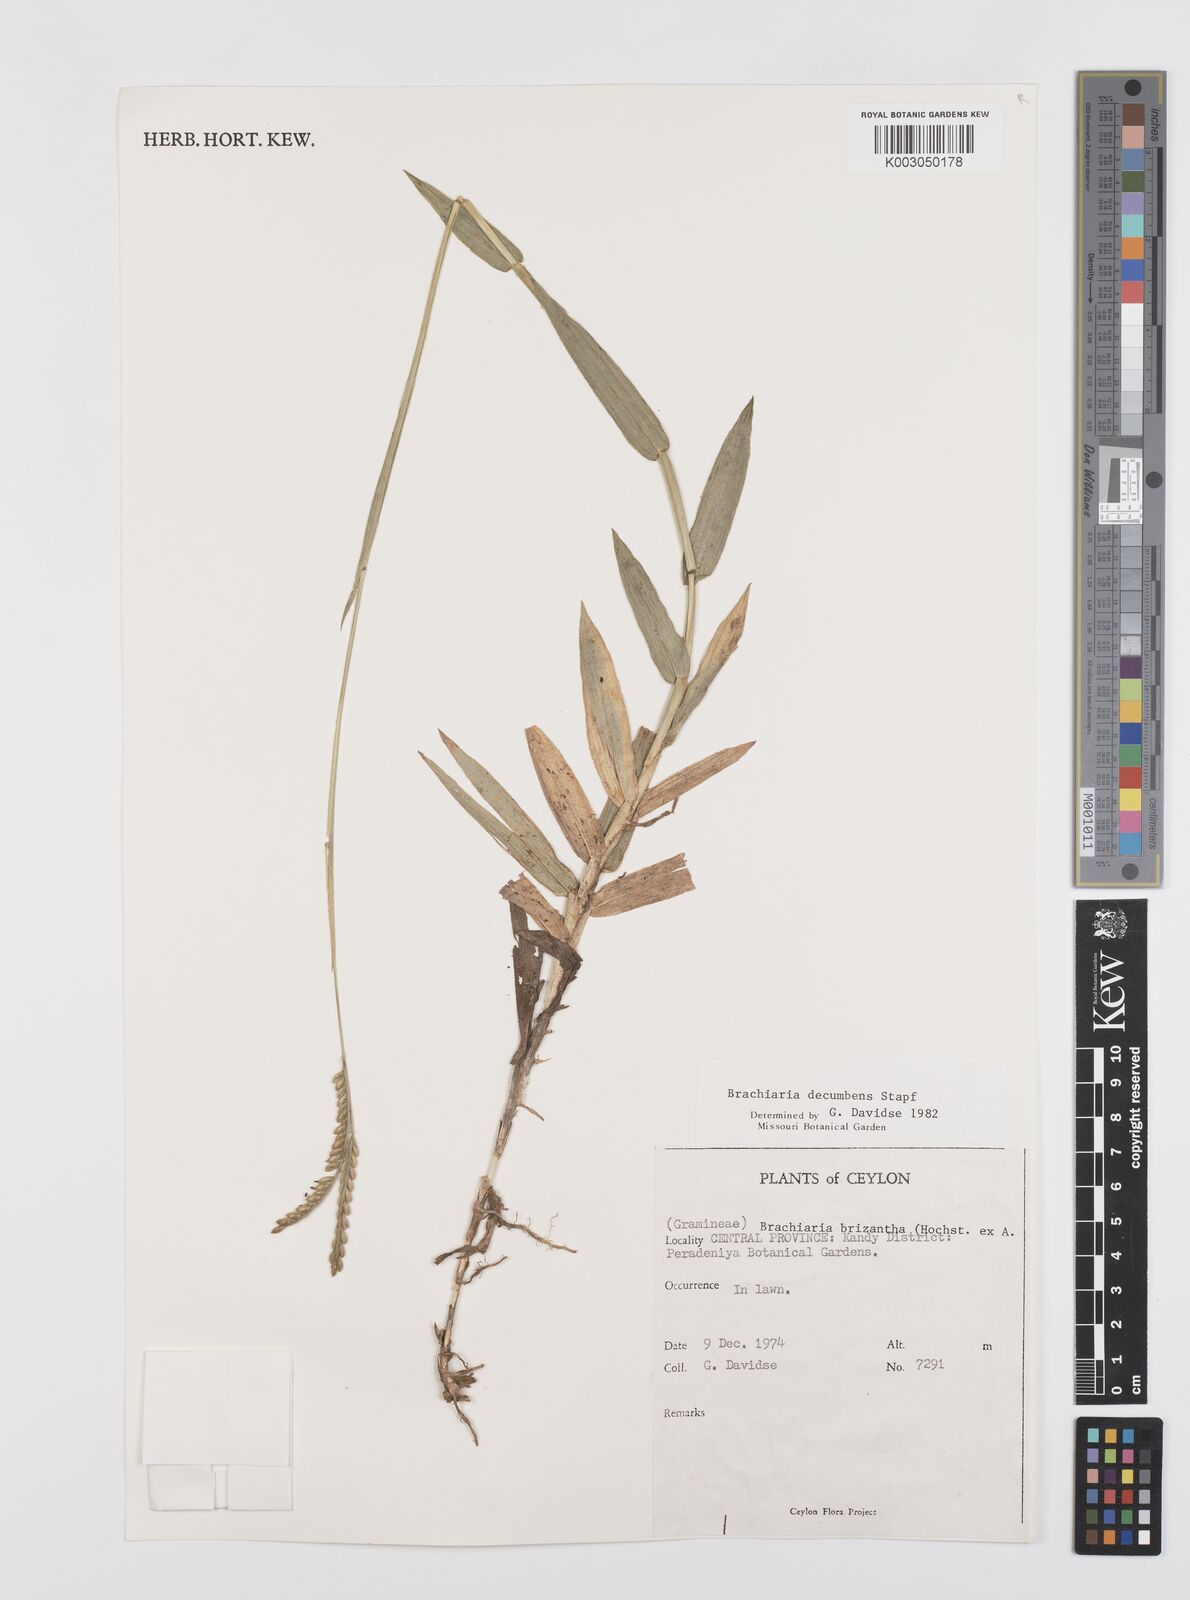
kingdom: Plantae
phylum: Tracheophyta
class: Liliopsida
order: Poales
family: Poaceae
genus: Urochloa
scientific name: Urochloa eminii
